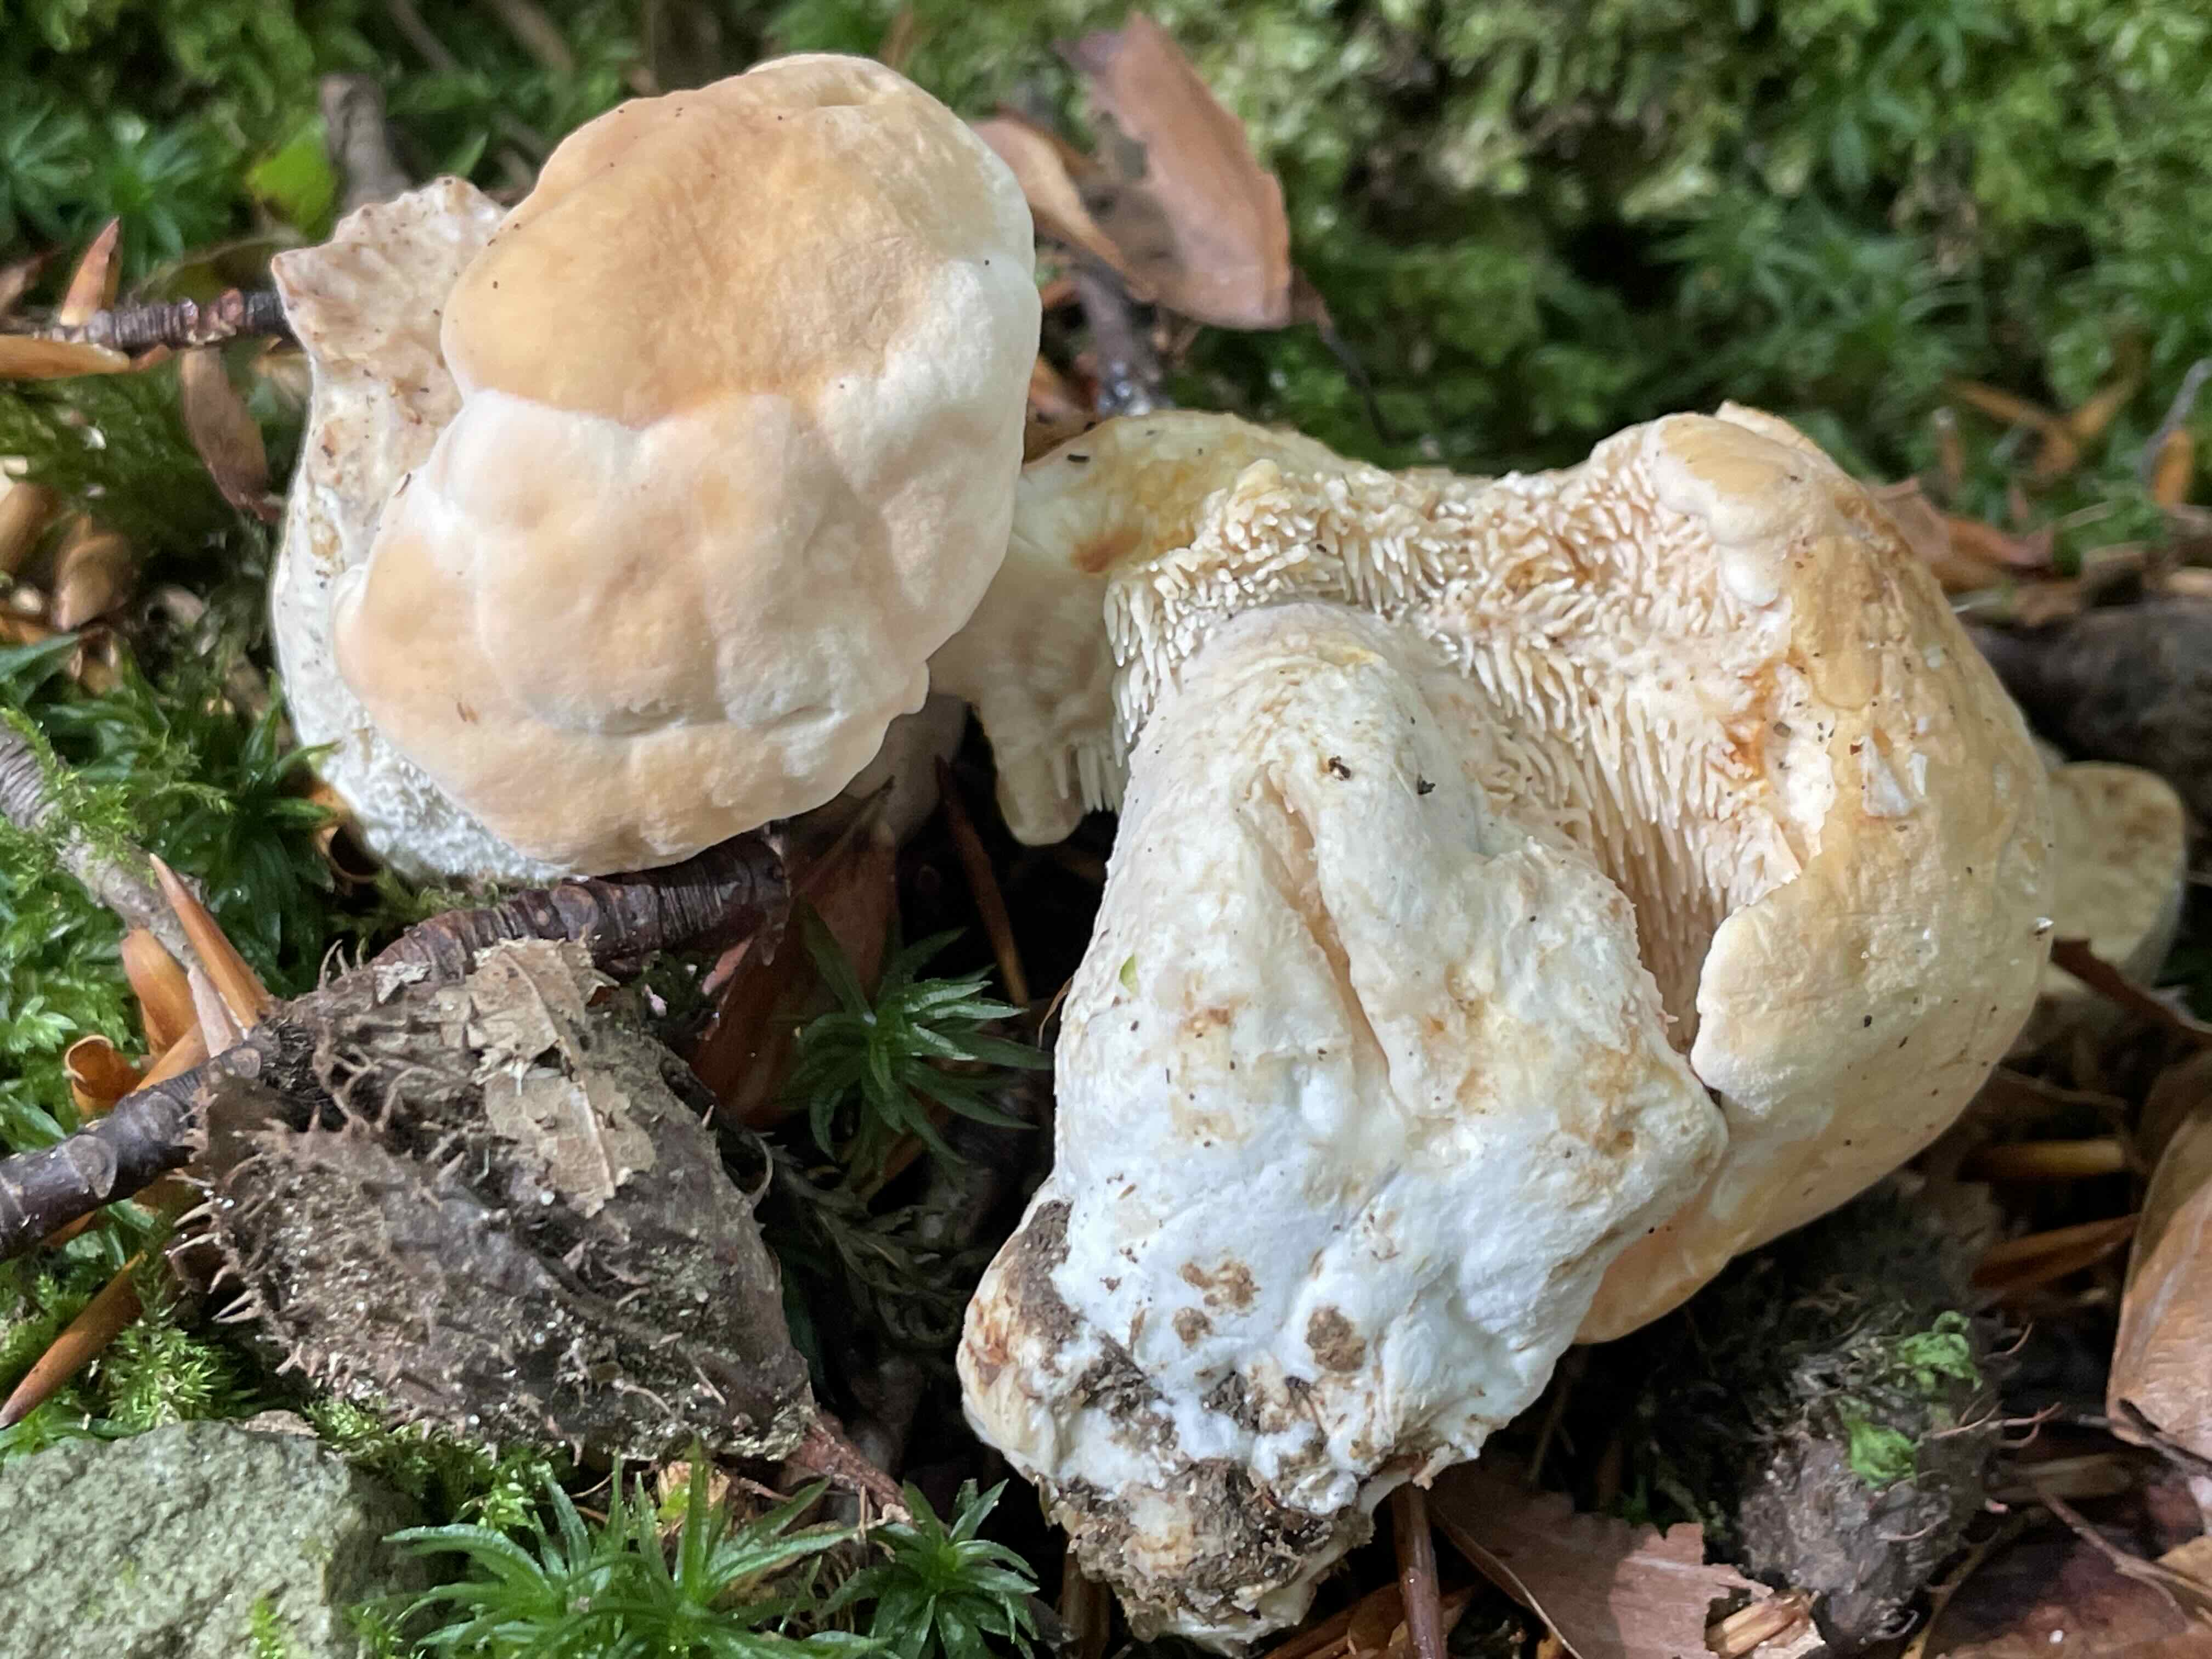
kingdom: Fungi
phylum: Basidiomycota
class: Agaricomycetes
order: Cantharellales
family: Hydnaceae
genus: Hydnum
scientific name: Hydnum
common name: pigsvamp
